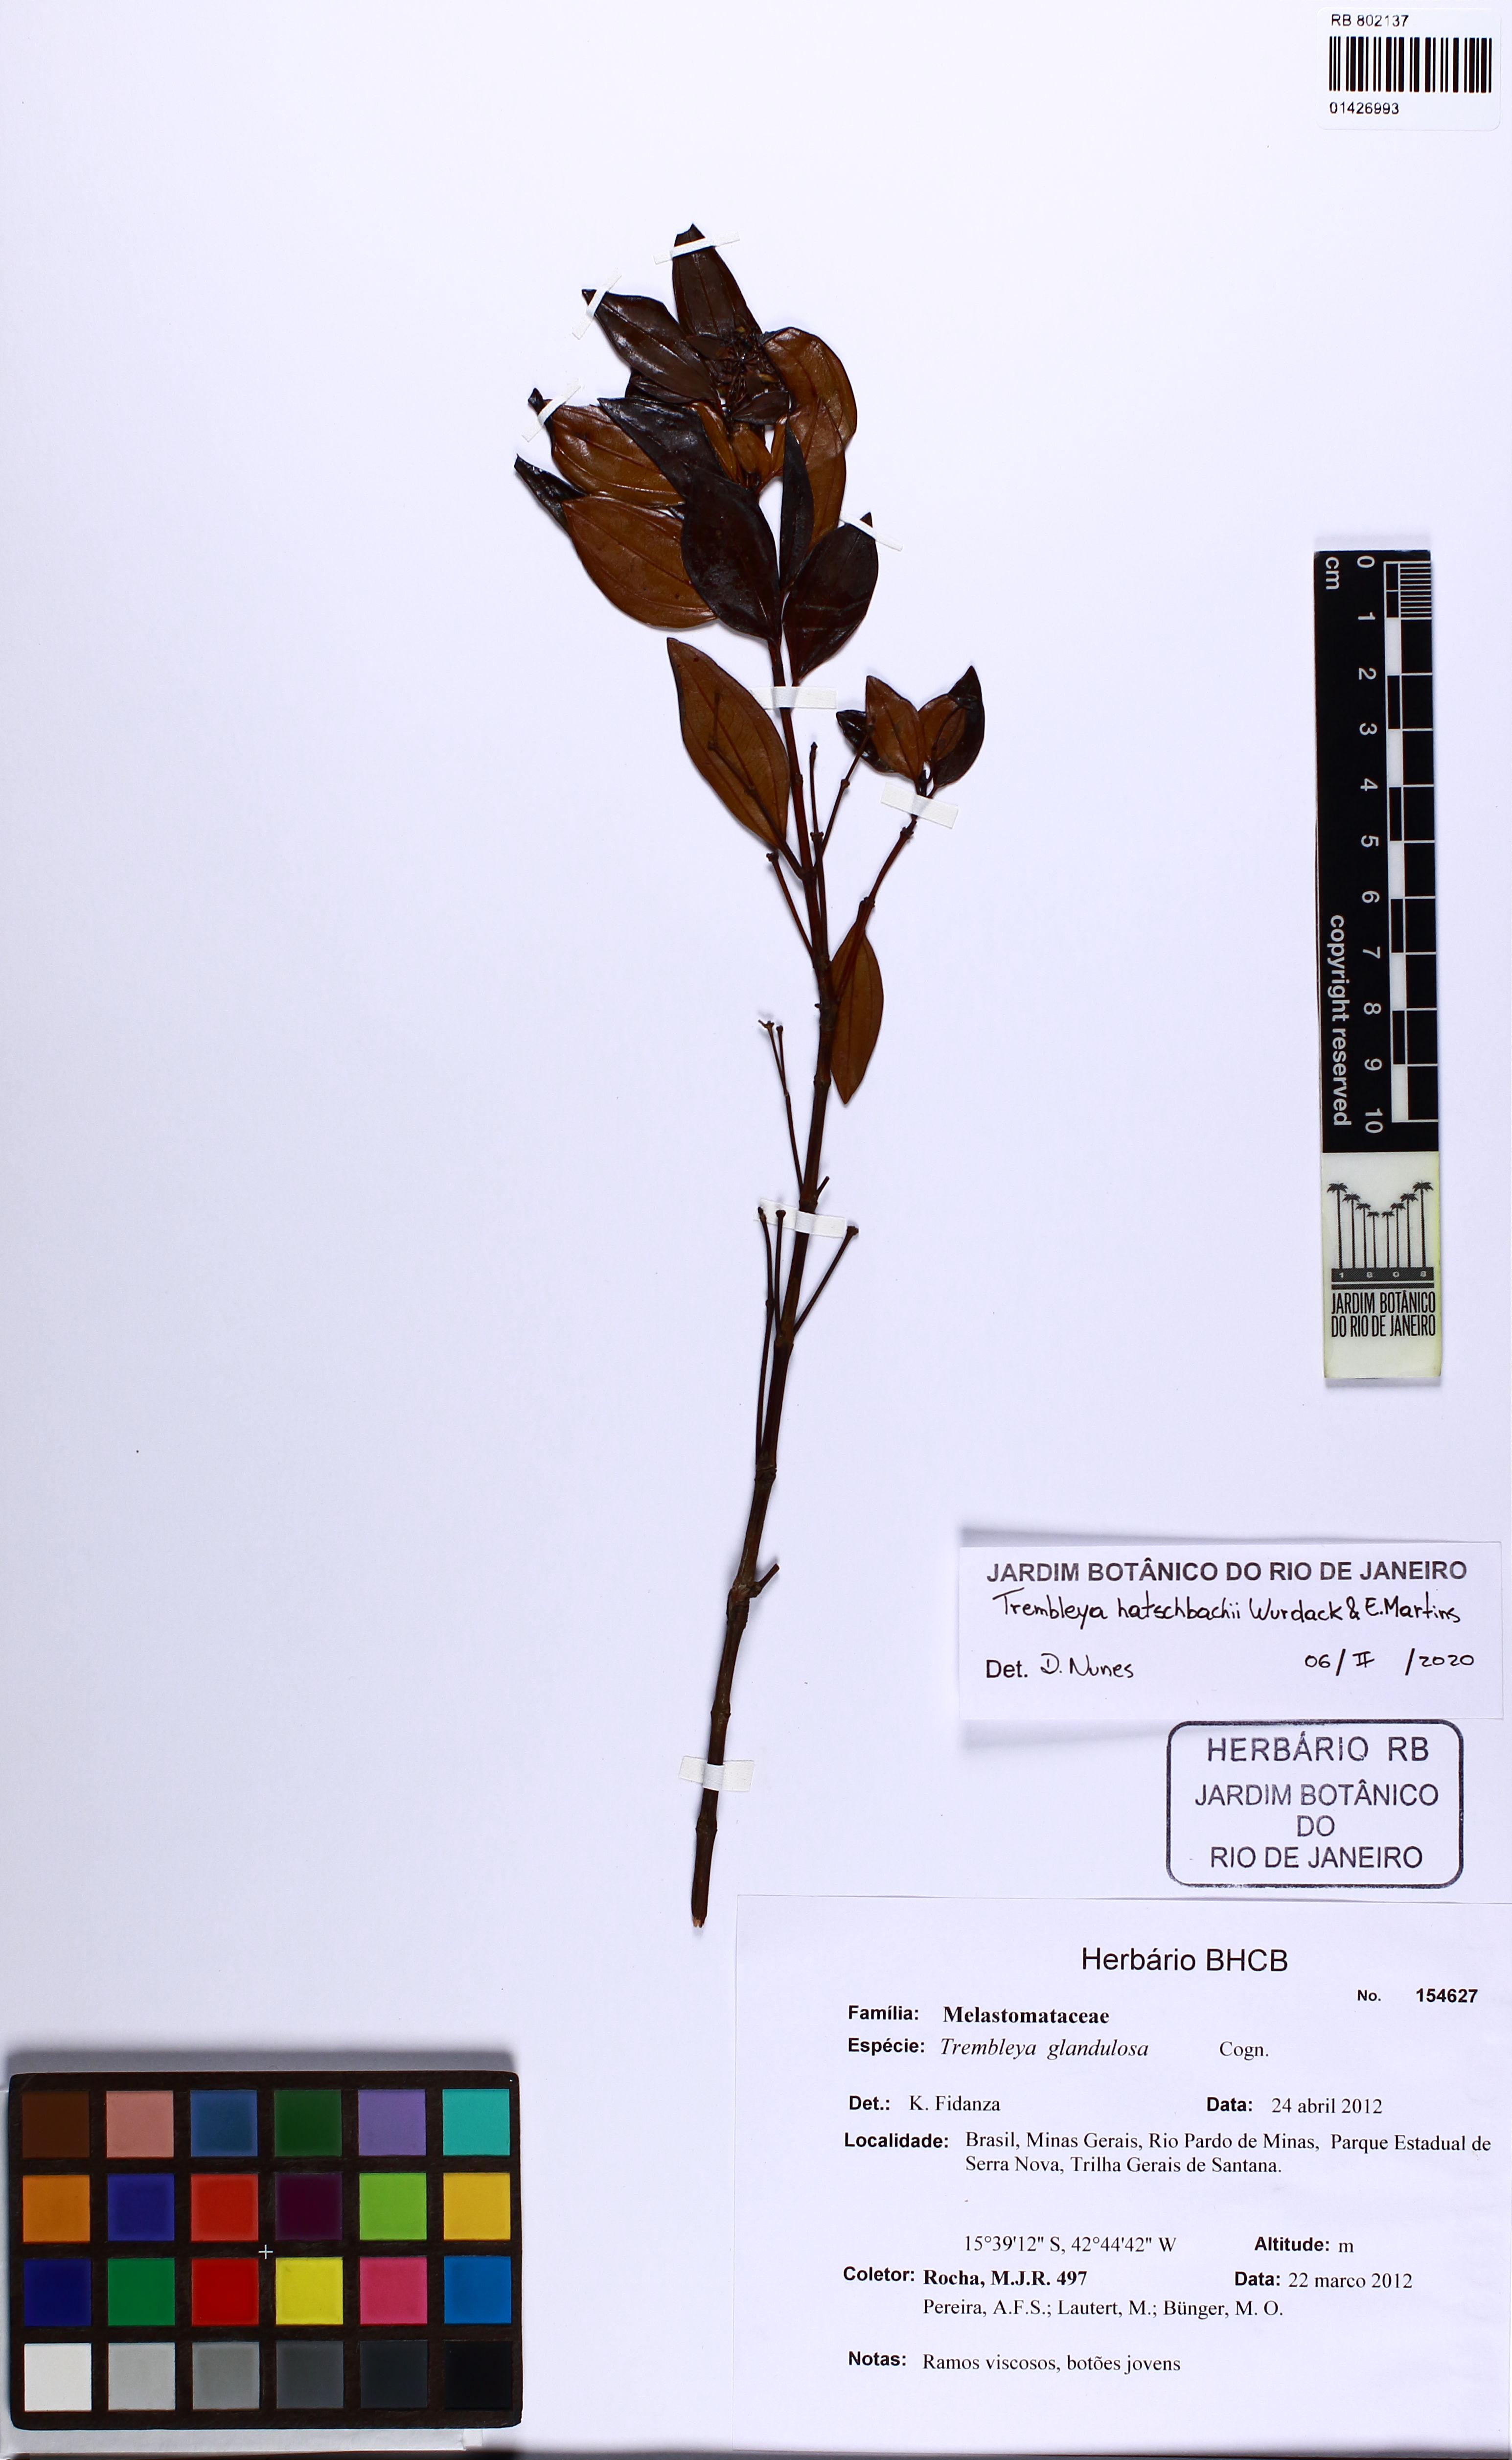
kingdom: Plantae
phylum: Tracheophyta
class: Magnoliopsida
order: Myrtales
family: Melastomataceae
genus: Microlicia
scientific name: Microlicia flaviflora
